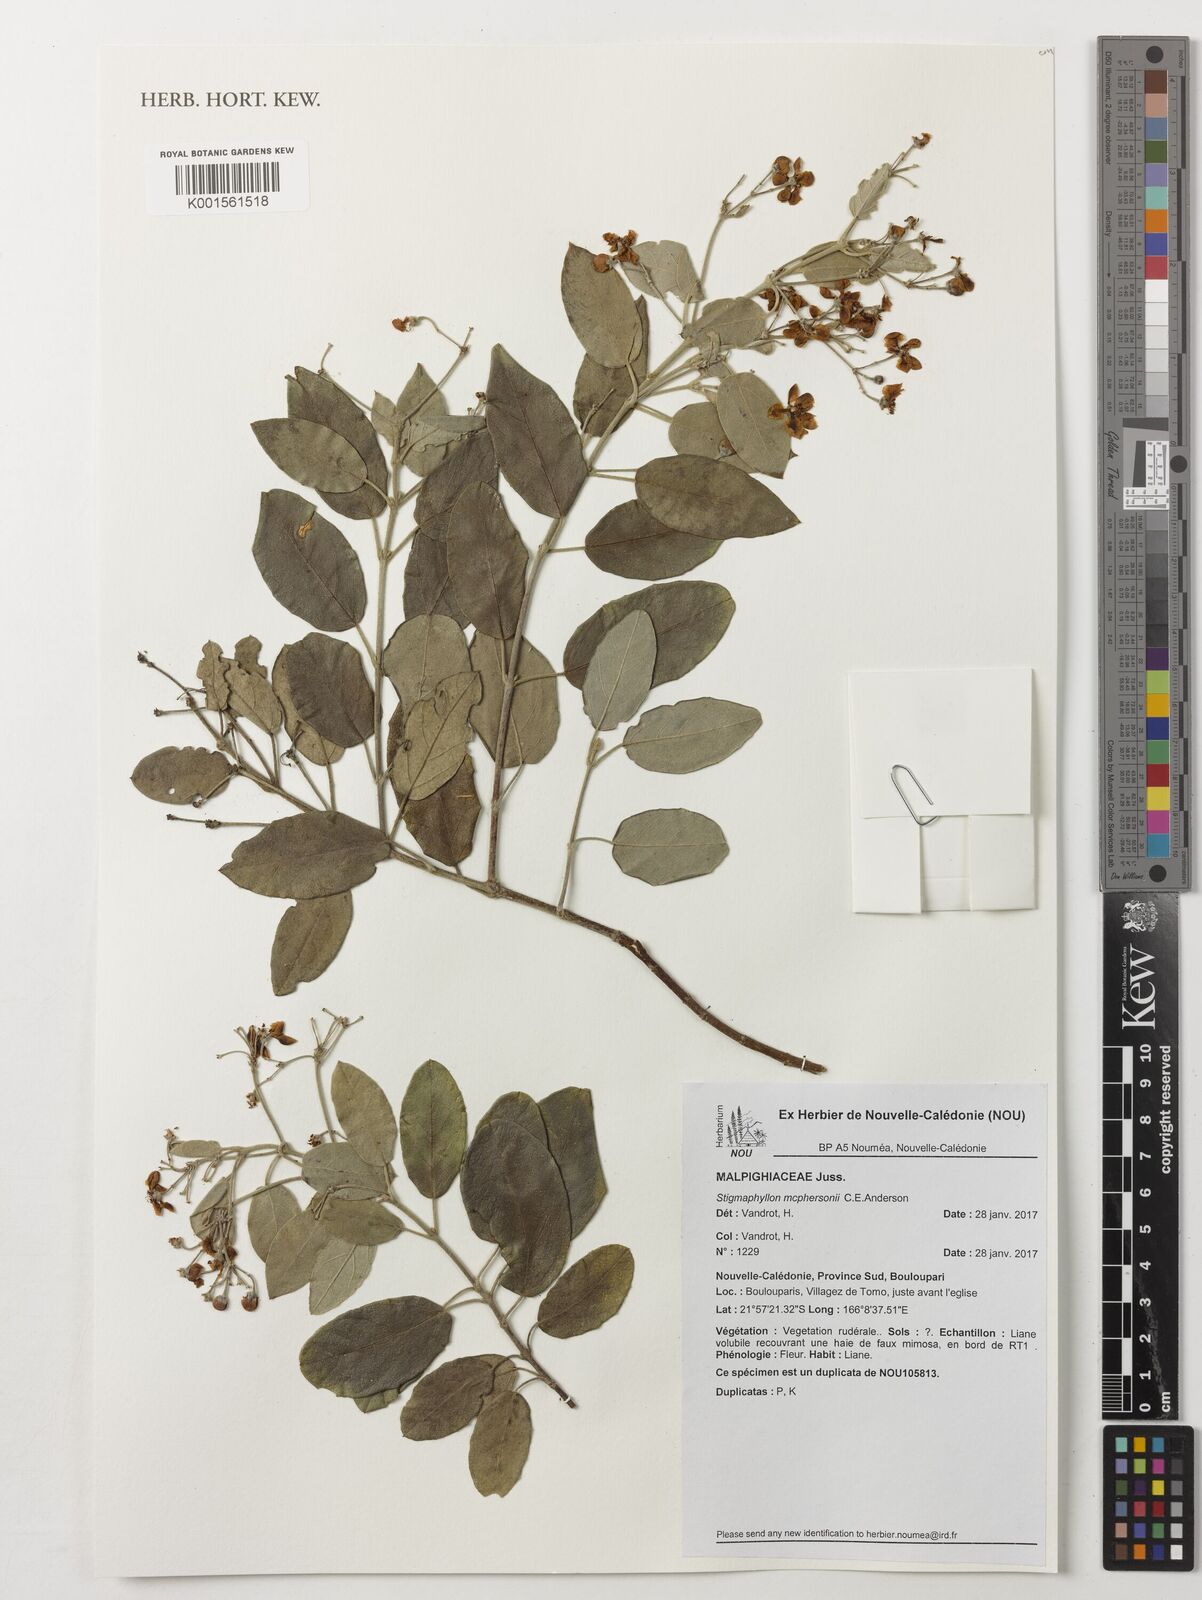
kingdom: Plantae
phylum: Tracheophyta
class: Magnoliopsida
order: Malpighiales
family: Malpighiaceae
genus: Stigmaphyllon
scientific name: Stigmaphyllon mcphersonii
